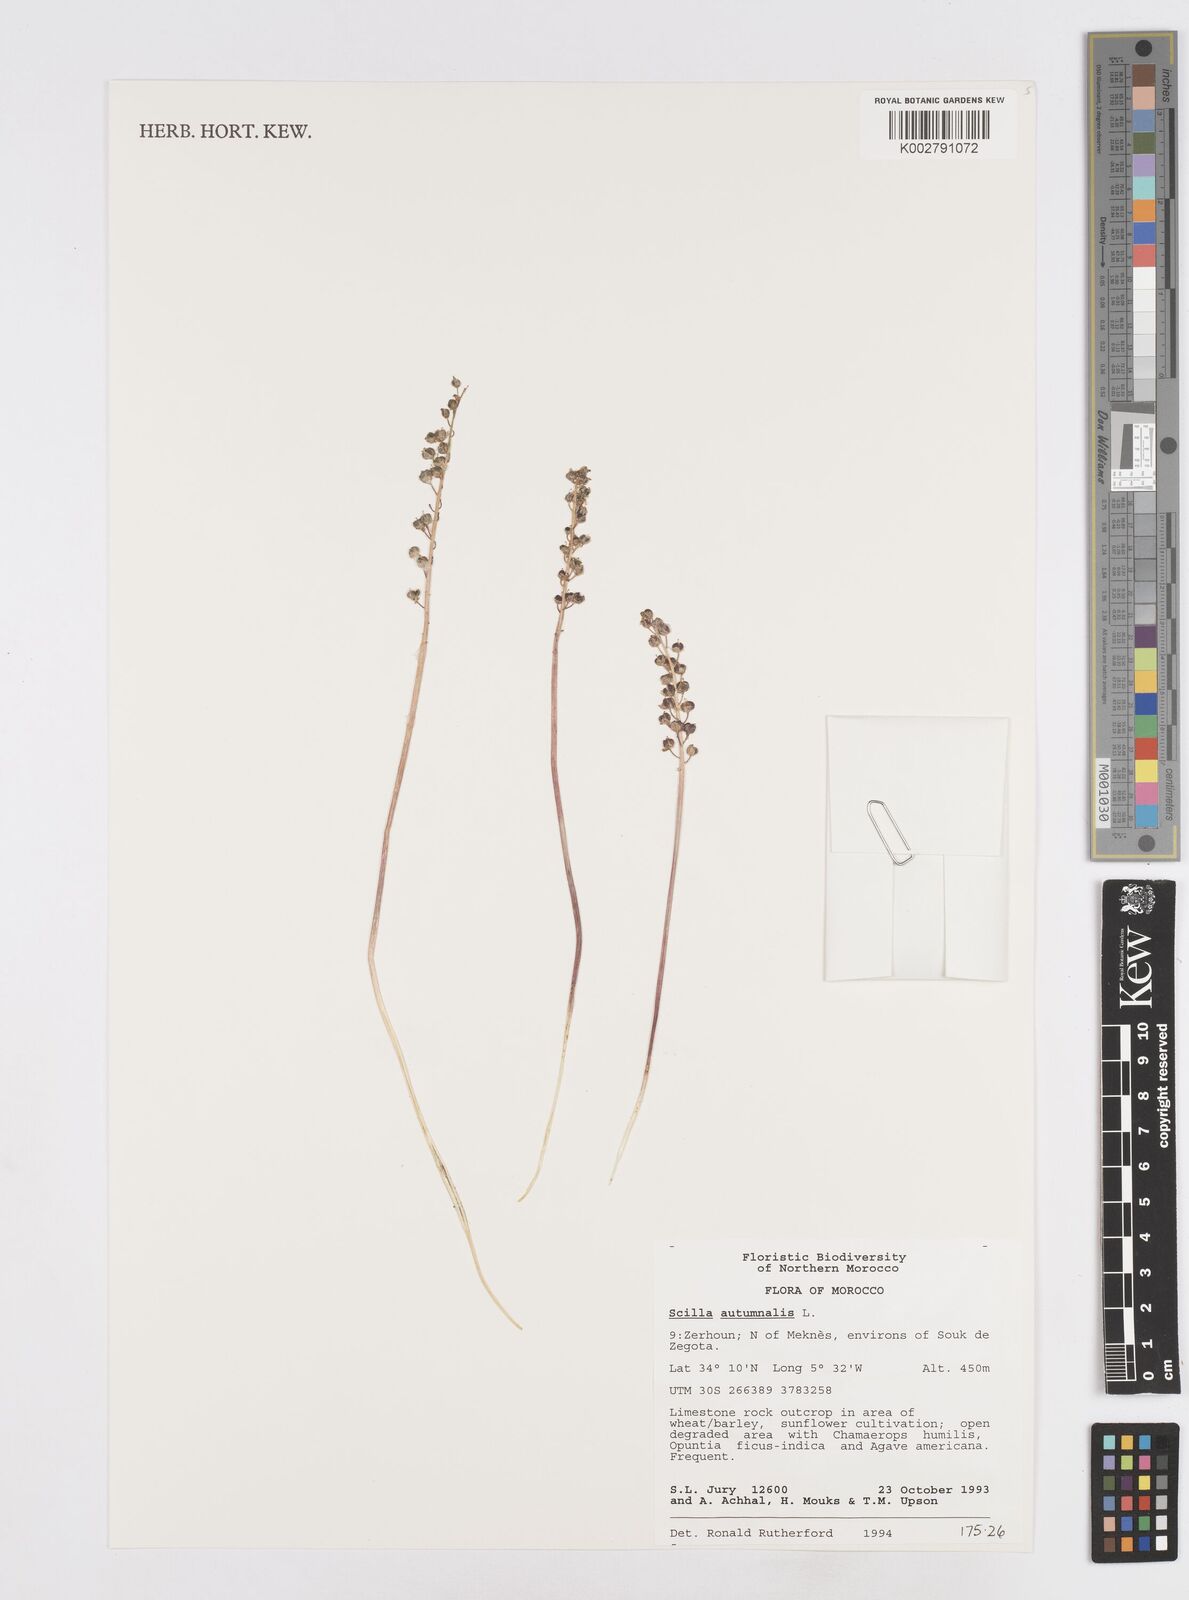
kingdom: Plantae
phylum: Tracheophyta
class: Liliopsida
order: Asparagales
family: Asparagaceae
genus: Prospero
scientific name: Prospero autumnale
